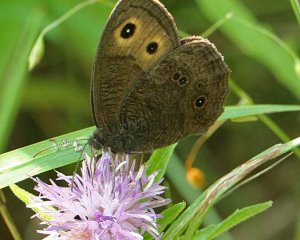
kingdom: Animalia
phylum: Arthropoda
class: Insecta
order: Lepidoptera
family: Nymphalidae
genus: Cercyonis
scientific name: Cercyonis pegala
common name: Common Wood-Nymph
